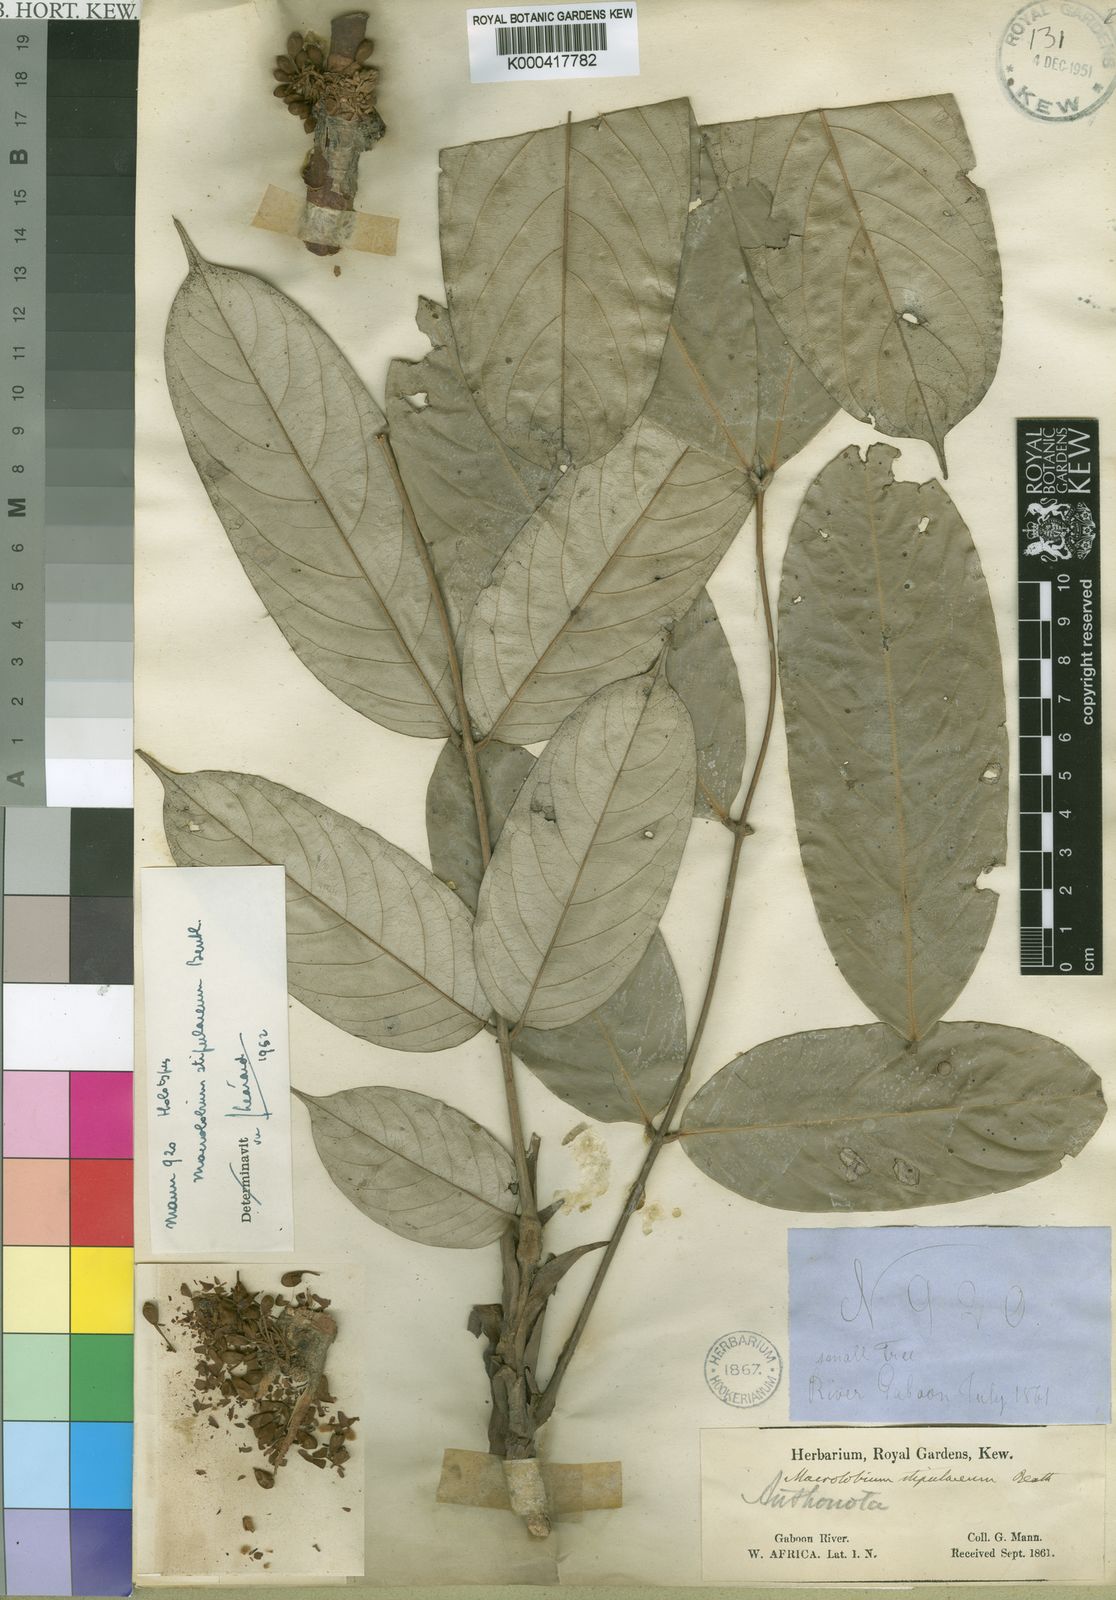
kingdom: Plantae
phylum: Tracheophyta
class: Magnoliopsida
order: Fabales
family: Fabaceae
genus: Anthonotha
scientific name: Anthonotha
